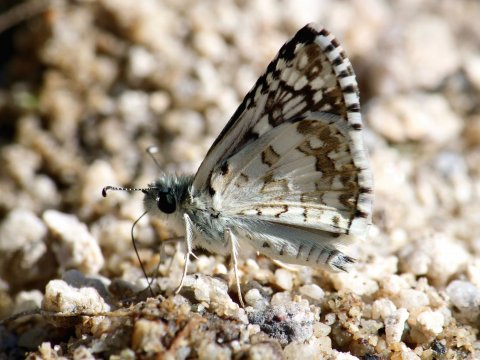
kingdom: Animalia
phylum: Arthropoda
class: Insecta
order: Lepidoptera
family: Hesperiidae
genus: Pyrgus
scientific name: Pyrgus communis
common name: Common Checkered-Skipper
